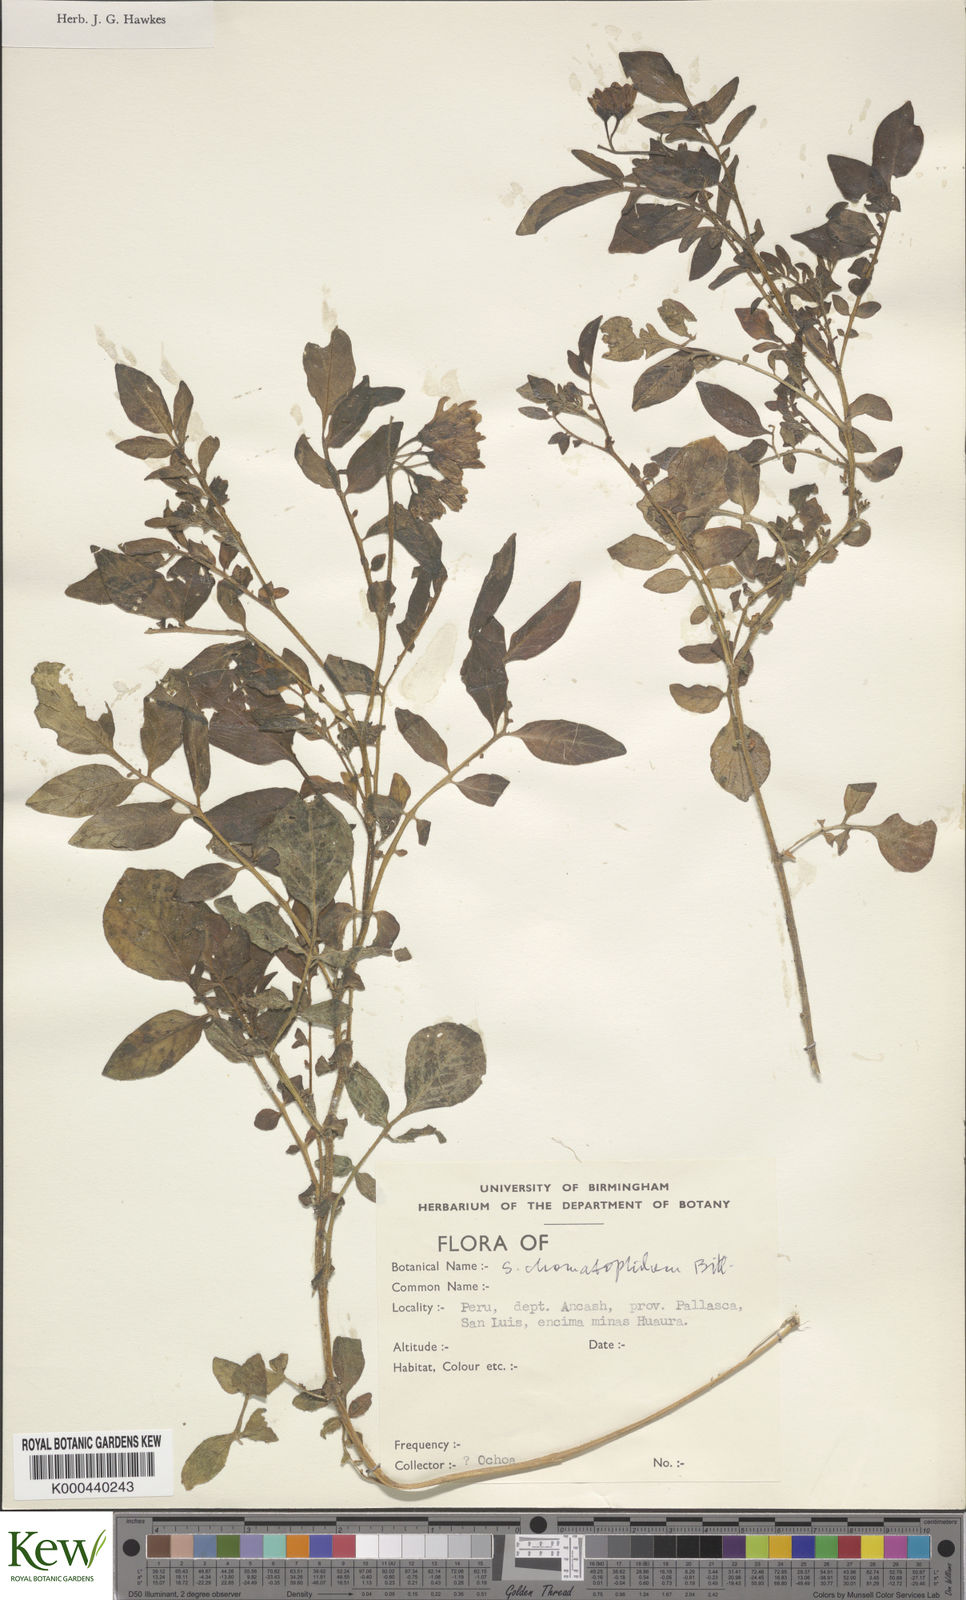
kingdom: Plantae
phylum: Tracheophyta
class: Magnoliopsida
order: Solanales
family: Solanaceae
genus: Solanum
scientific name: Solanum chomatophilum
